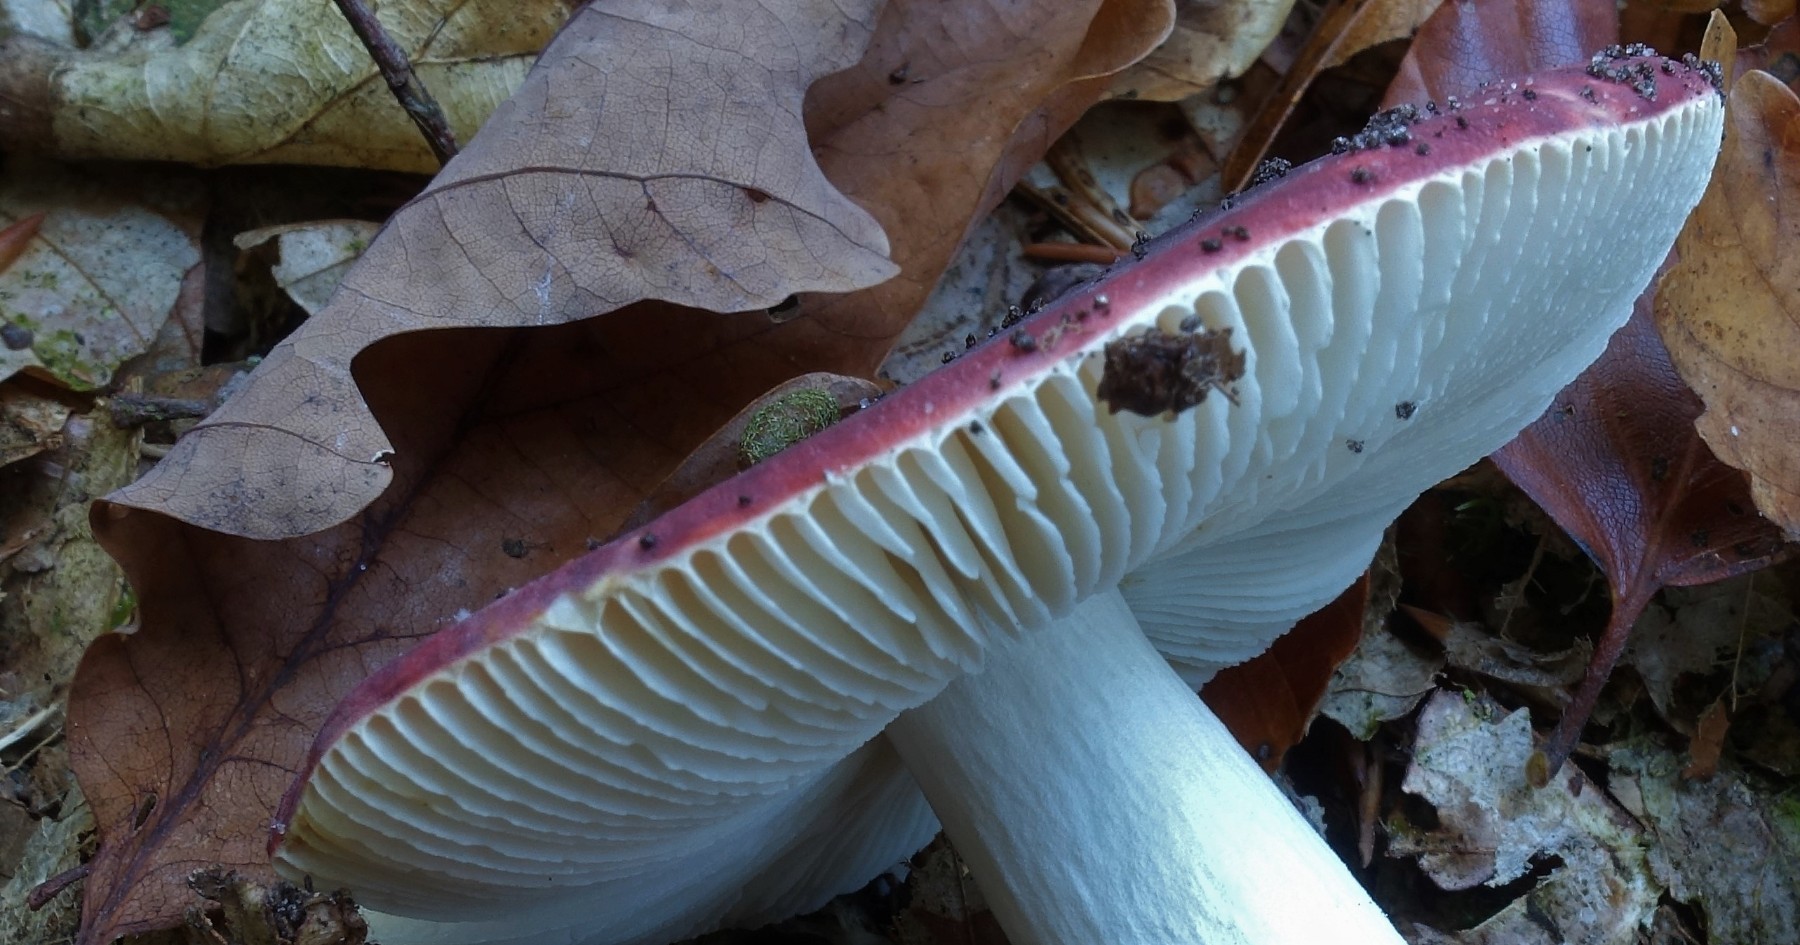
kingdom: Fungi
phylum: Basidiomycota
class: Agaricomycetes
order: Russulales
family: Russulaceae
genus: Russula
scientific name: Russula fragilis
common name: savbladet skørhat
